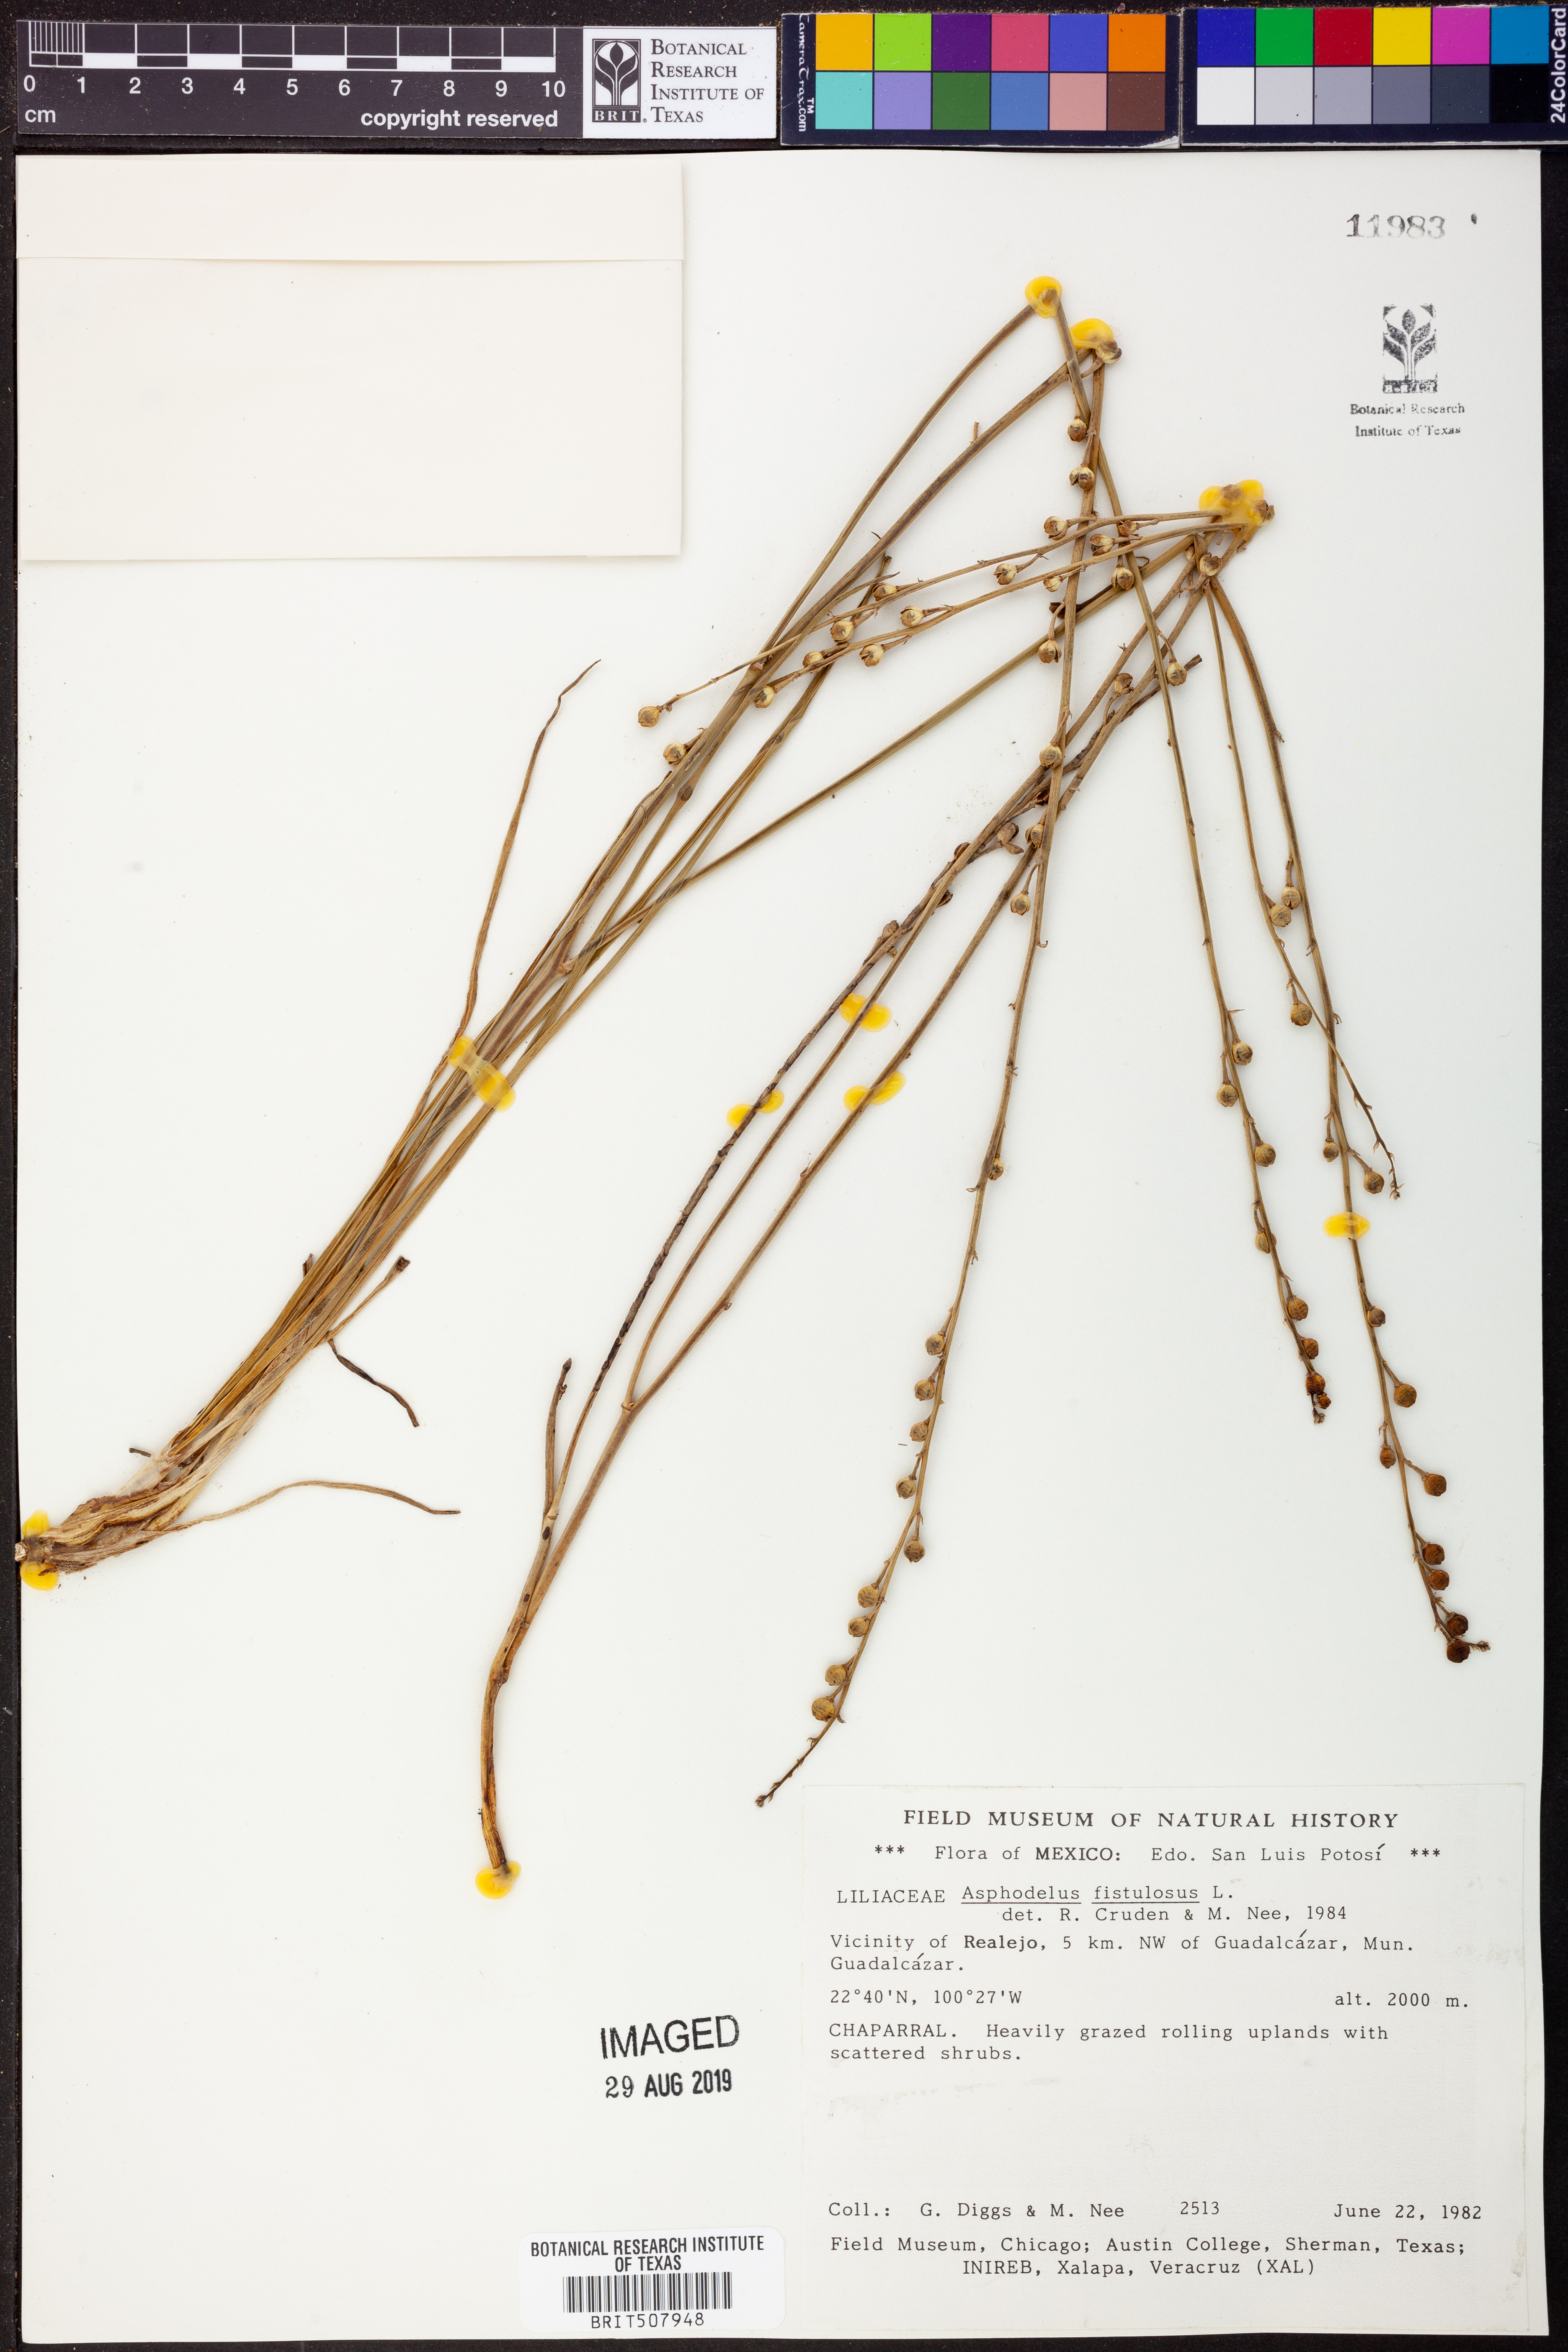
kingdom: Plantae
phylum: Tracheophyta
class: Liliopsida
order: Asparagales
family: Asphodelaceae
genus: Asphodelus
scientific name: Asphodelus fistulosus
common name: Onionweed
